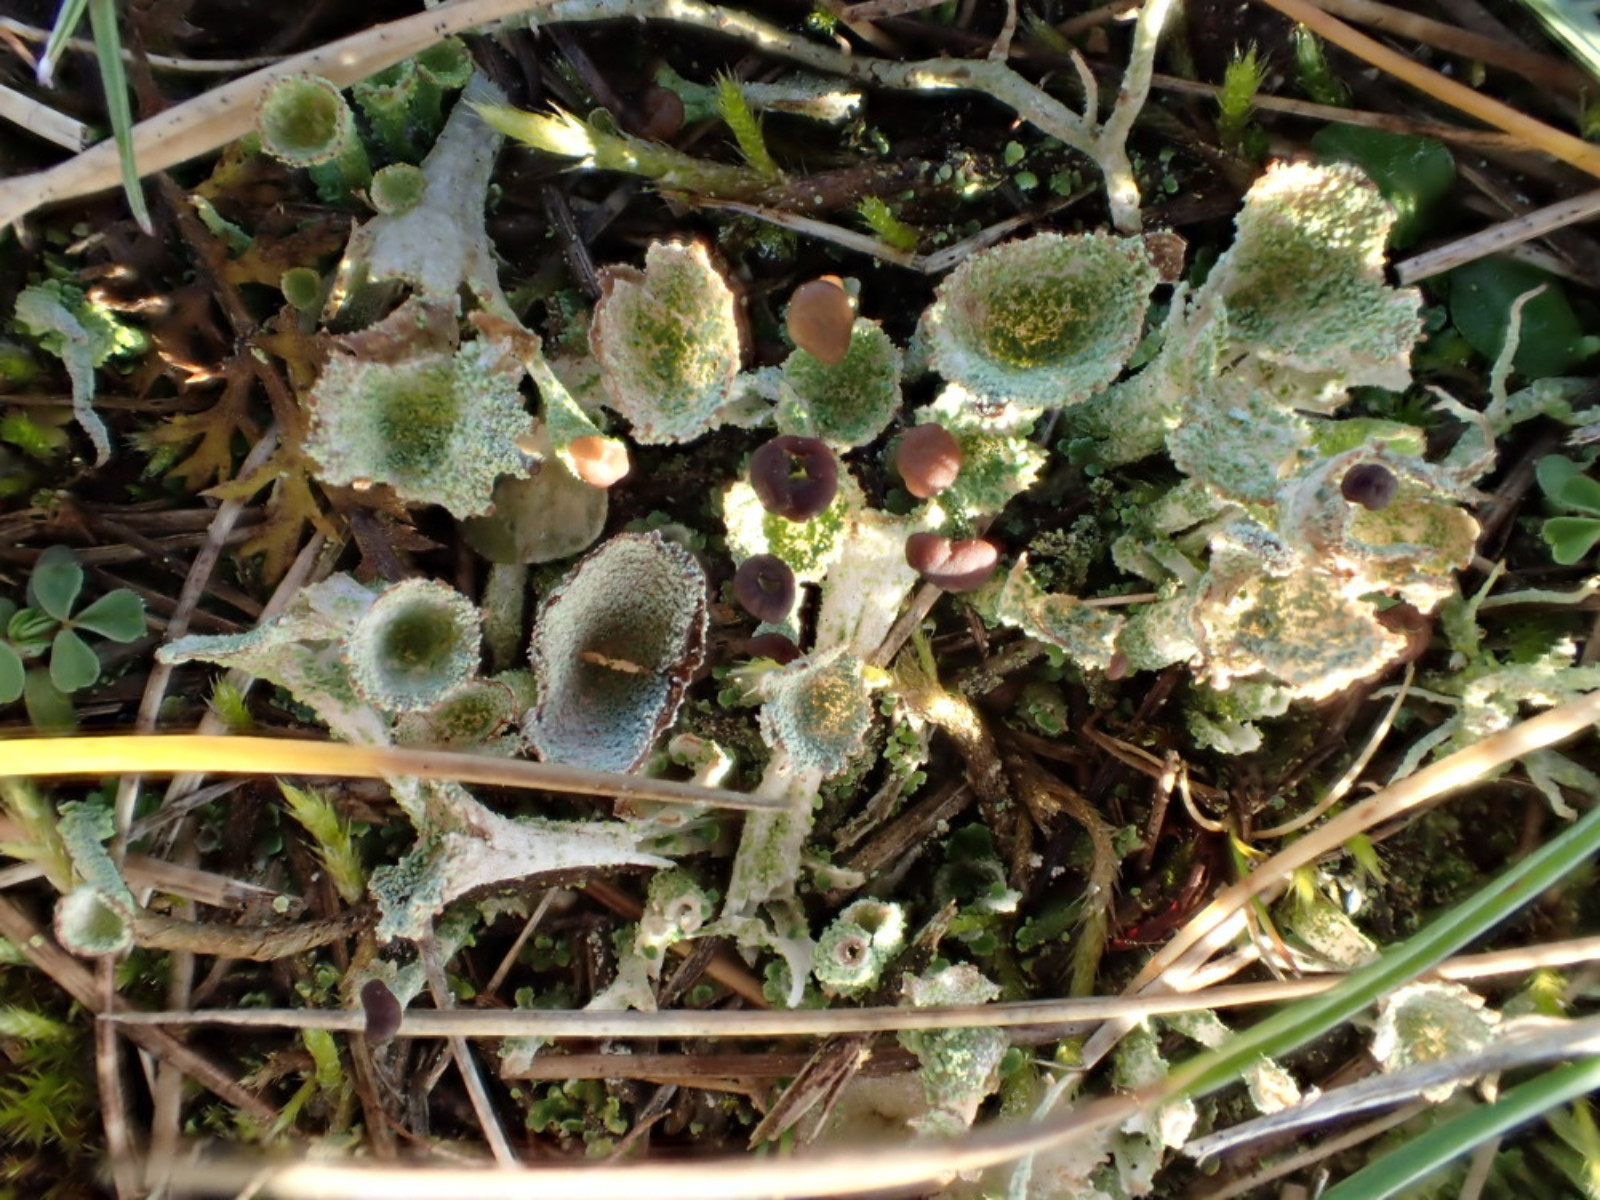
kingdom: Fungi
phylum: Ascomycota
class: Lecanoromycetes
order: Lecanorales
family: Cladoniaceae
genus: Cladonia
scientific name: Cladonia
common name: brungrøn bægerlav
